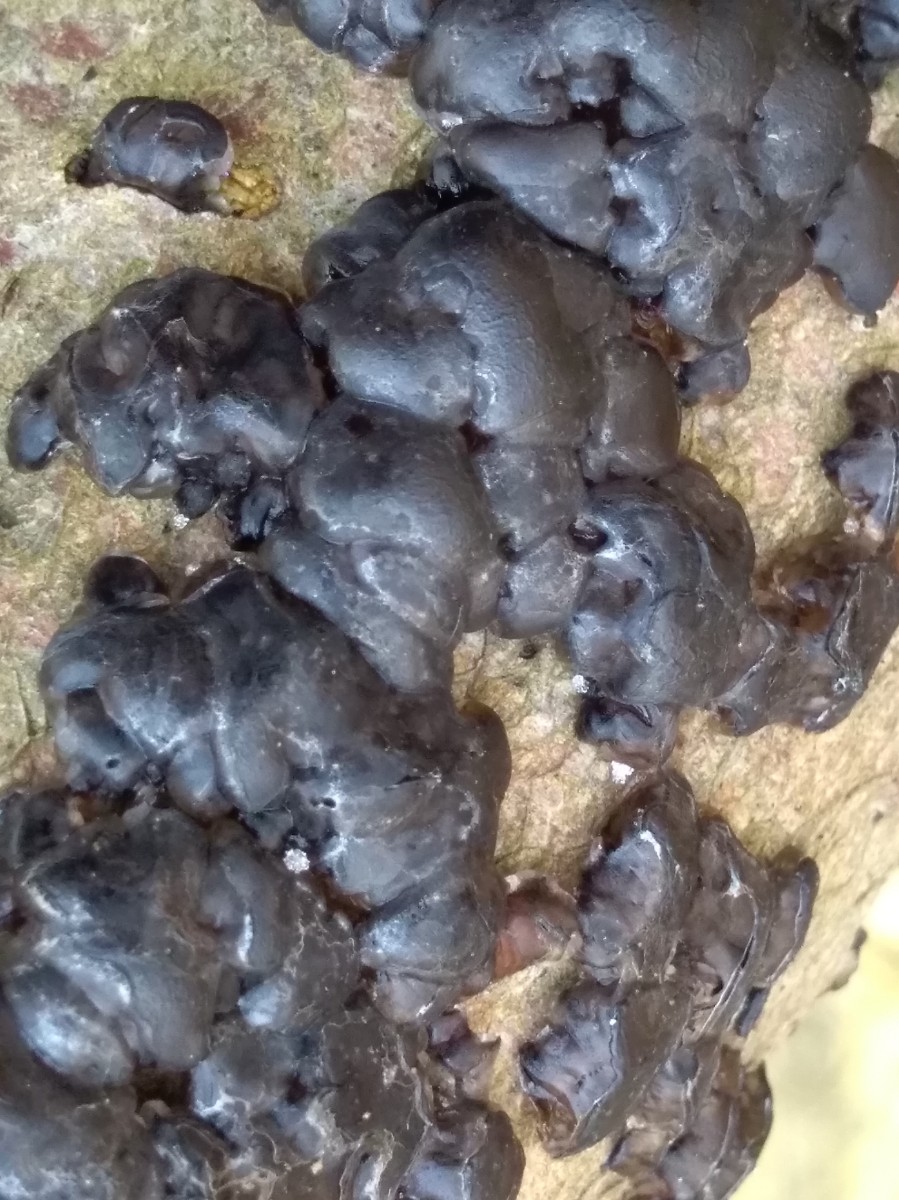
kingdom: Fungi
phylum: Basidiomycota
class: Agaricomycetes
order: Auriculariales
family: Auriculariaceae
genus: Exidia
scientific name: Exidia nigricans
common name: almindelig bævretop
